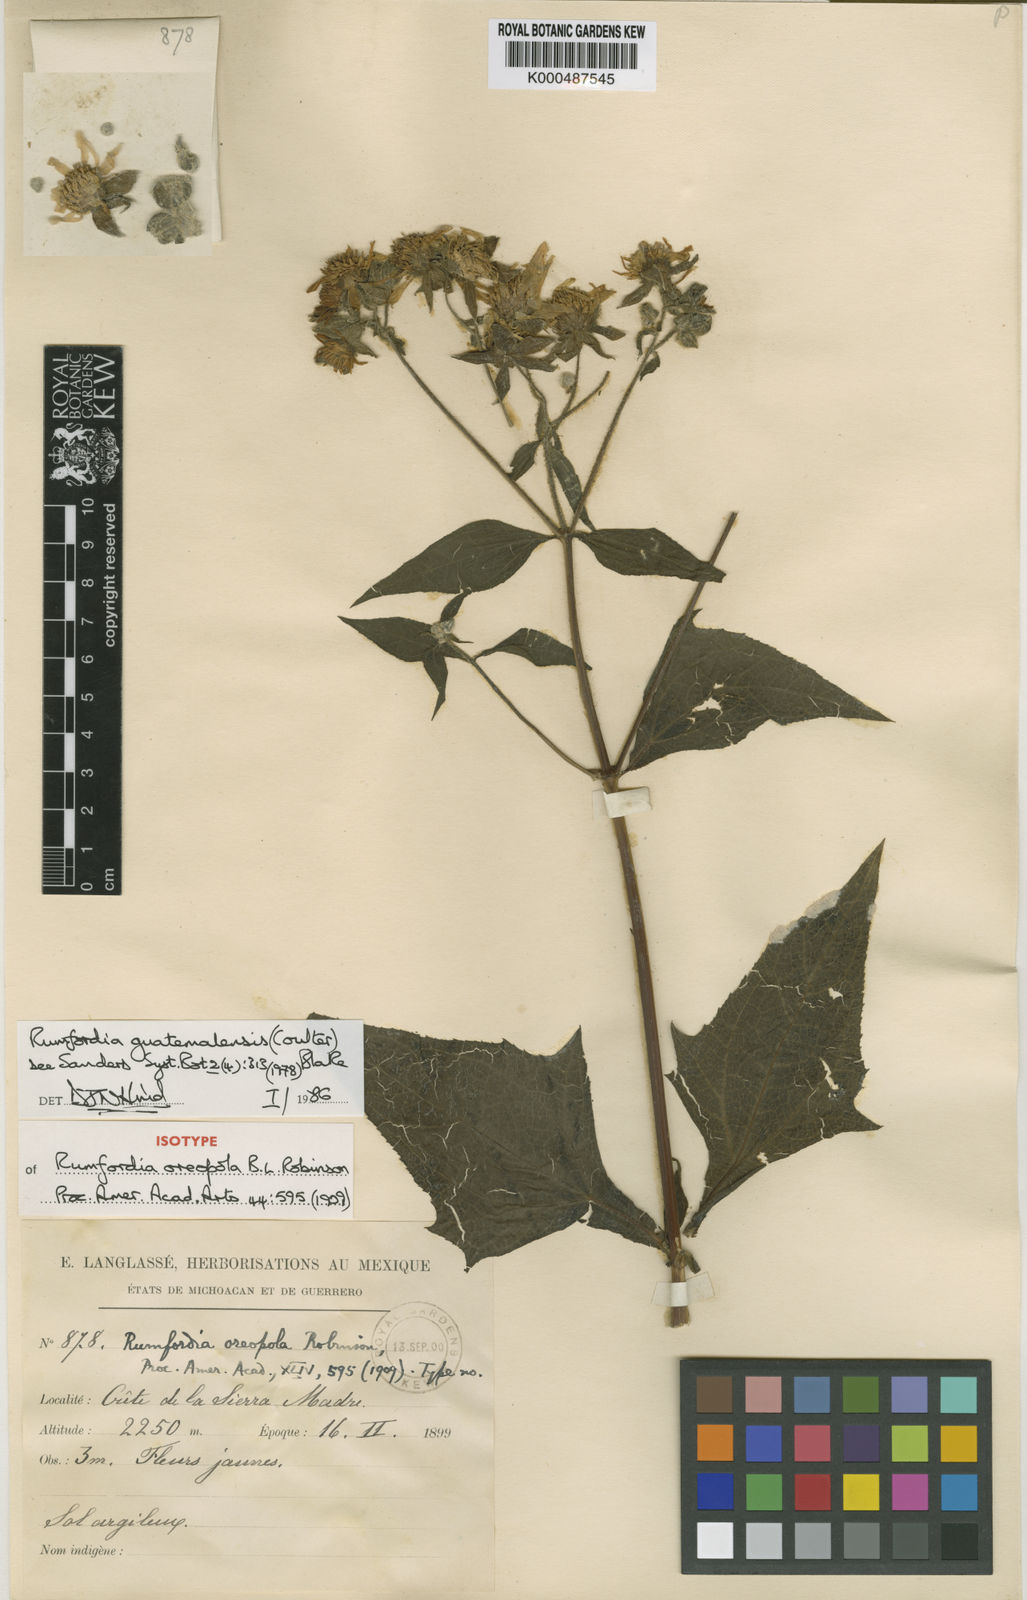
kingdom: Plantae
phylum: Tracheophyta
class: Magnoliopsida
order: Asterales
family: Asteraceae
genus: Rumfordia
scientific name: Rumfordia guatemalensis
